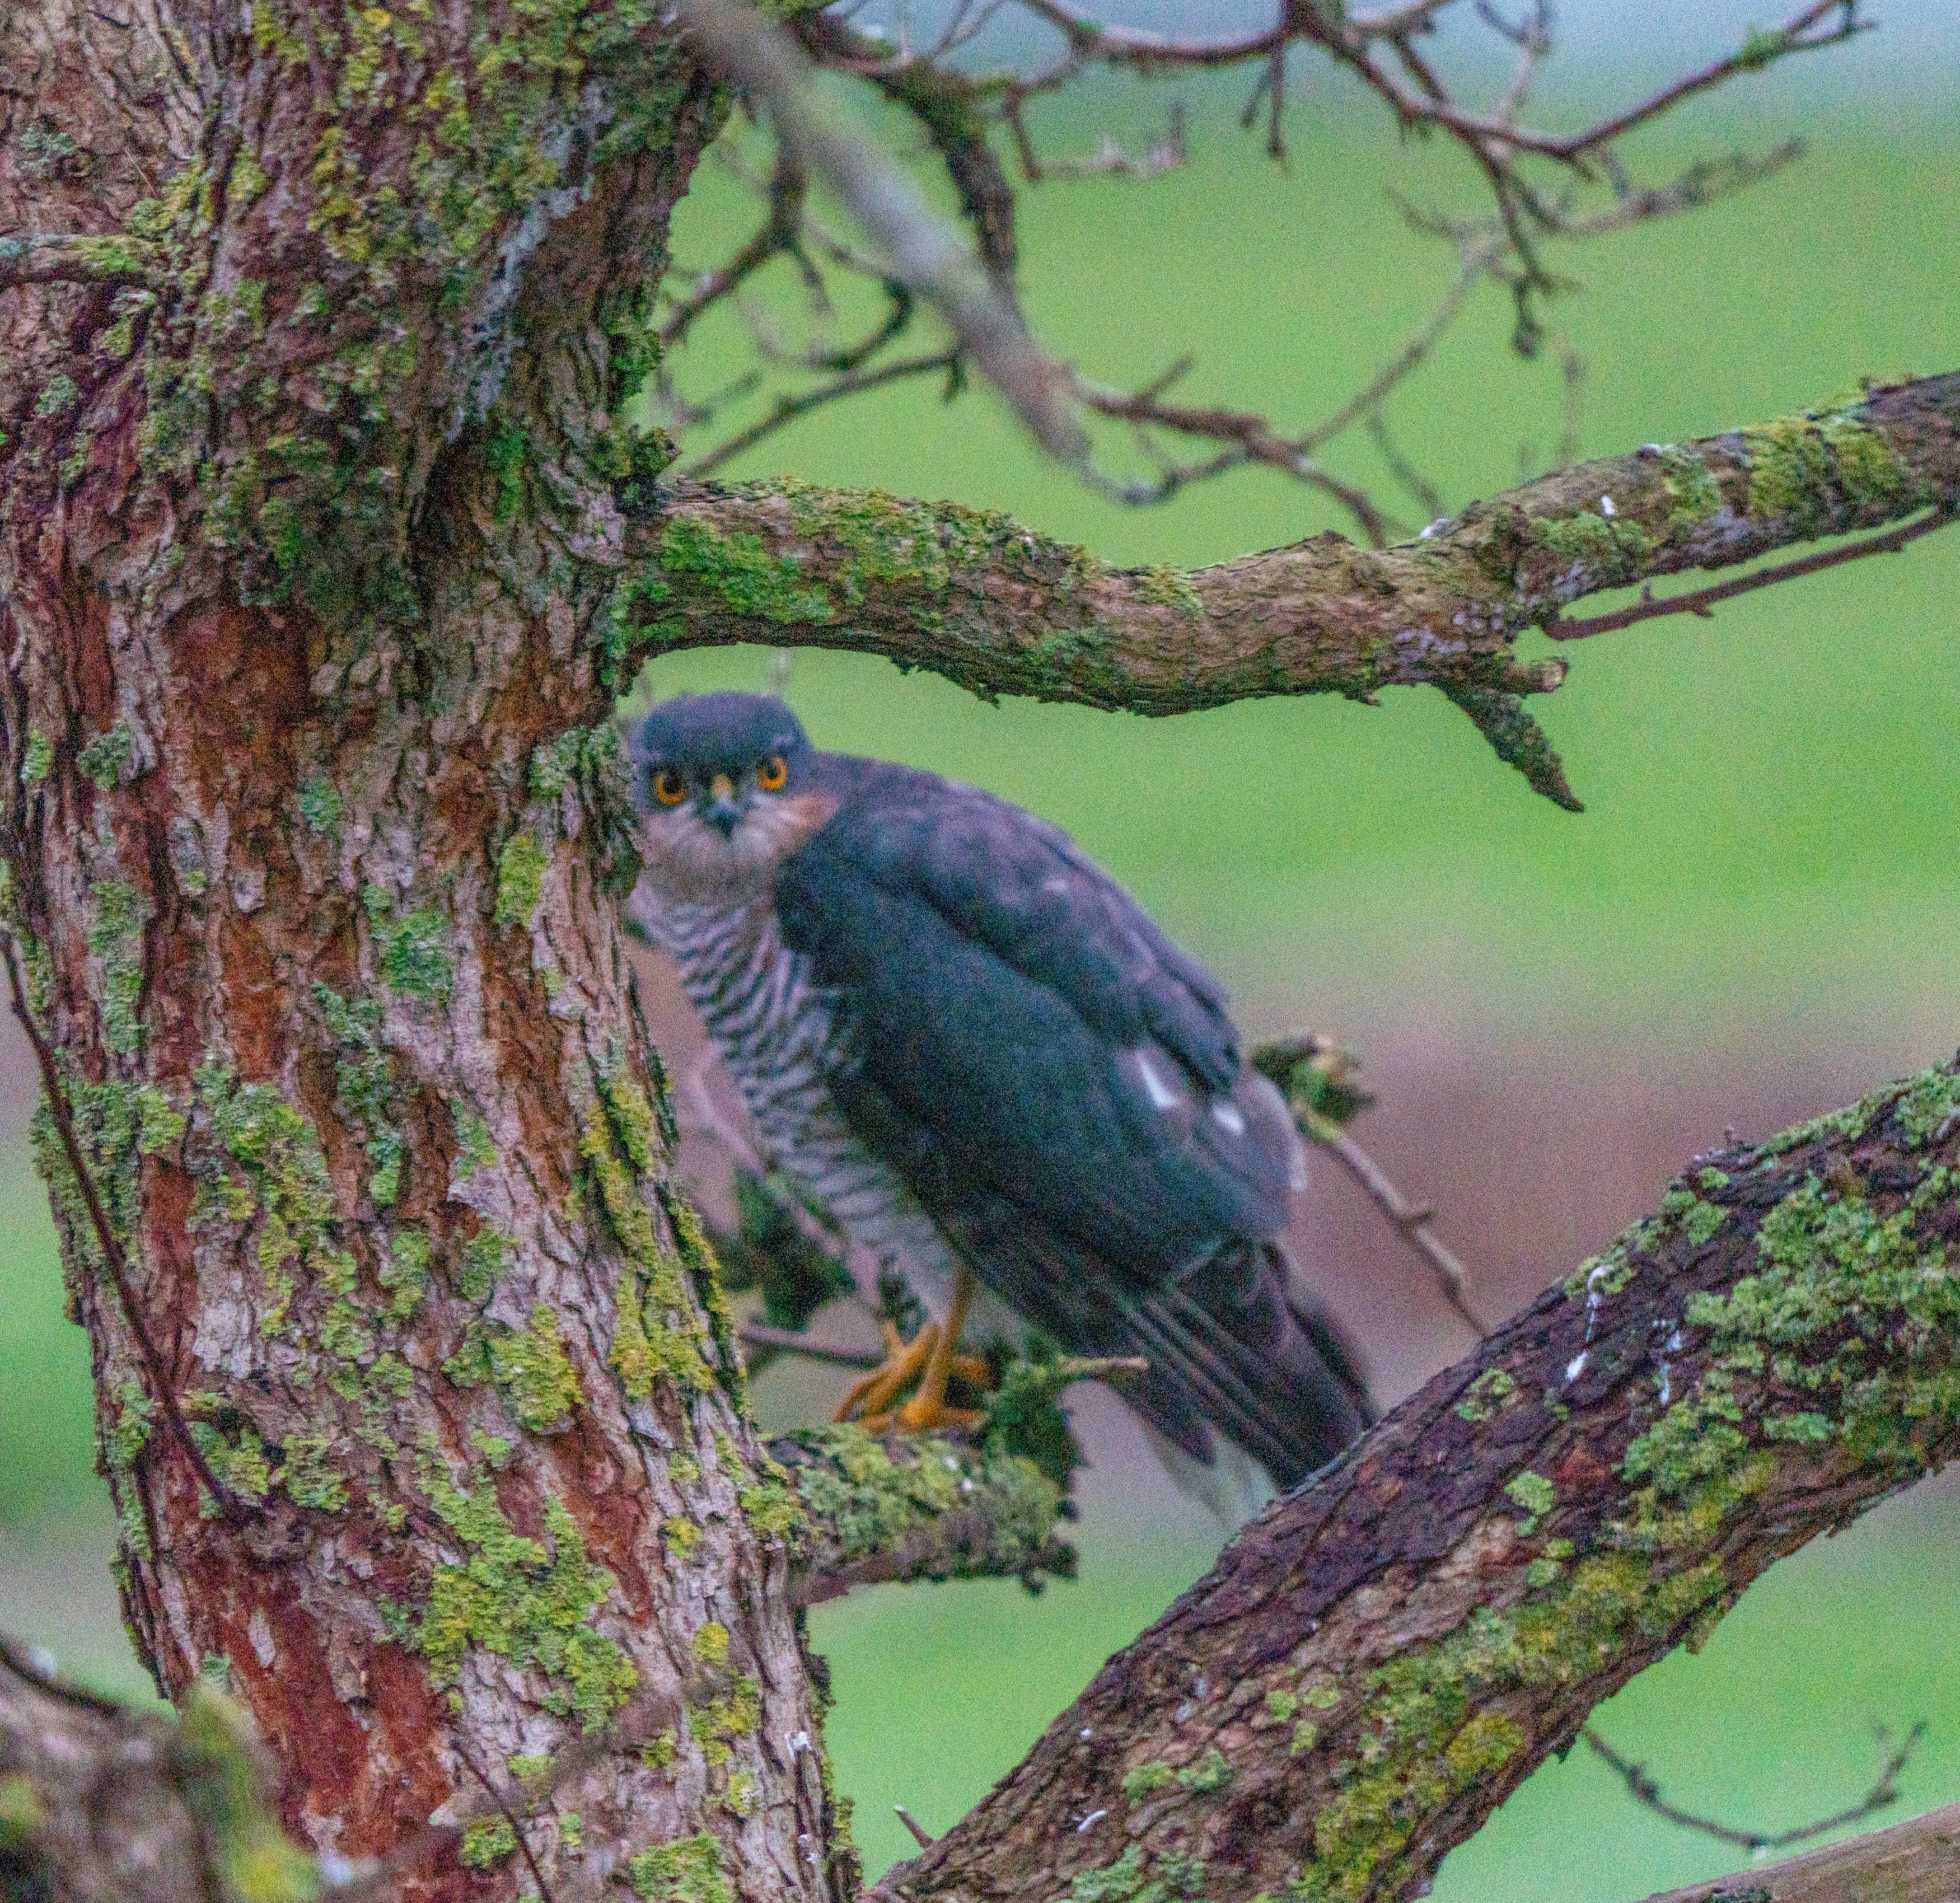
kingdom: Animalia
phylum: Chordata
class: Aves
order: Accipitriformes
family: Accipitridae
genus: Accipiter
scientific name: Accipiter nisus
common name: Spurvehøg
